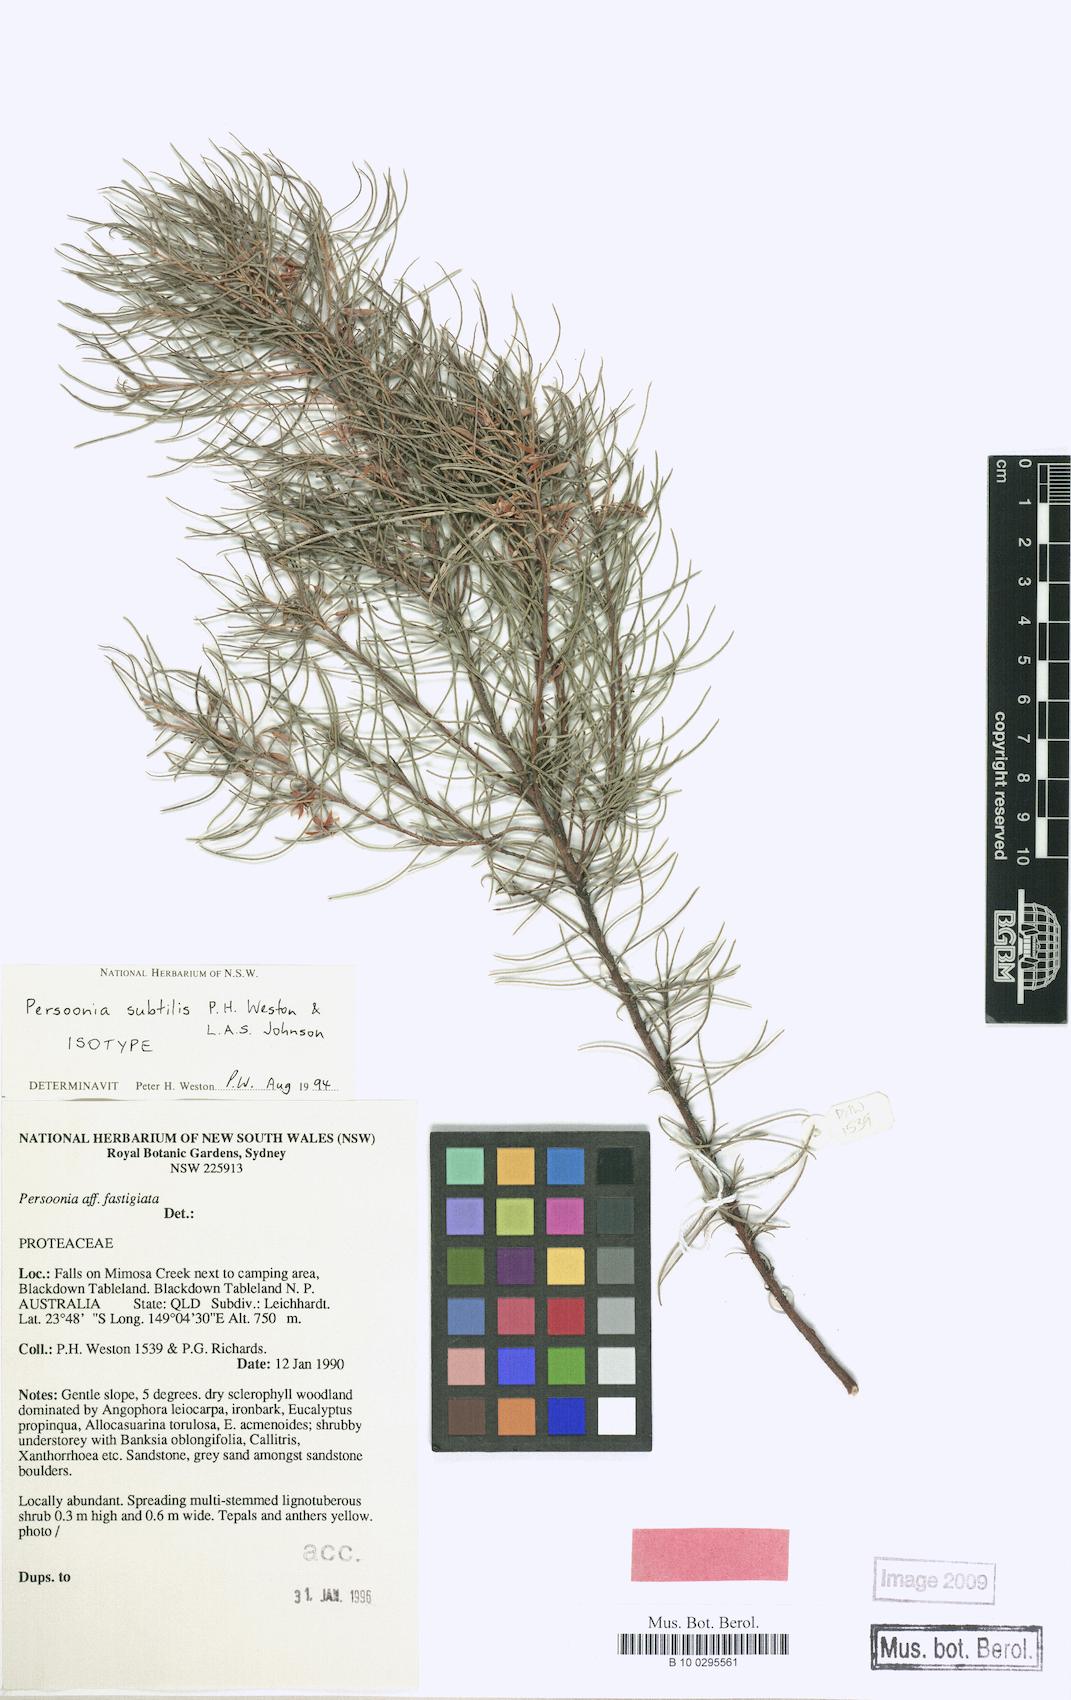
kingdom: Plantae
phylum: Tracheophyta
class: Magnoliopsida
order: Proteales
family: Proteaceae
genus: Persoonia
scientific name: Persoonia subtilis
